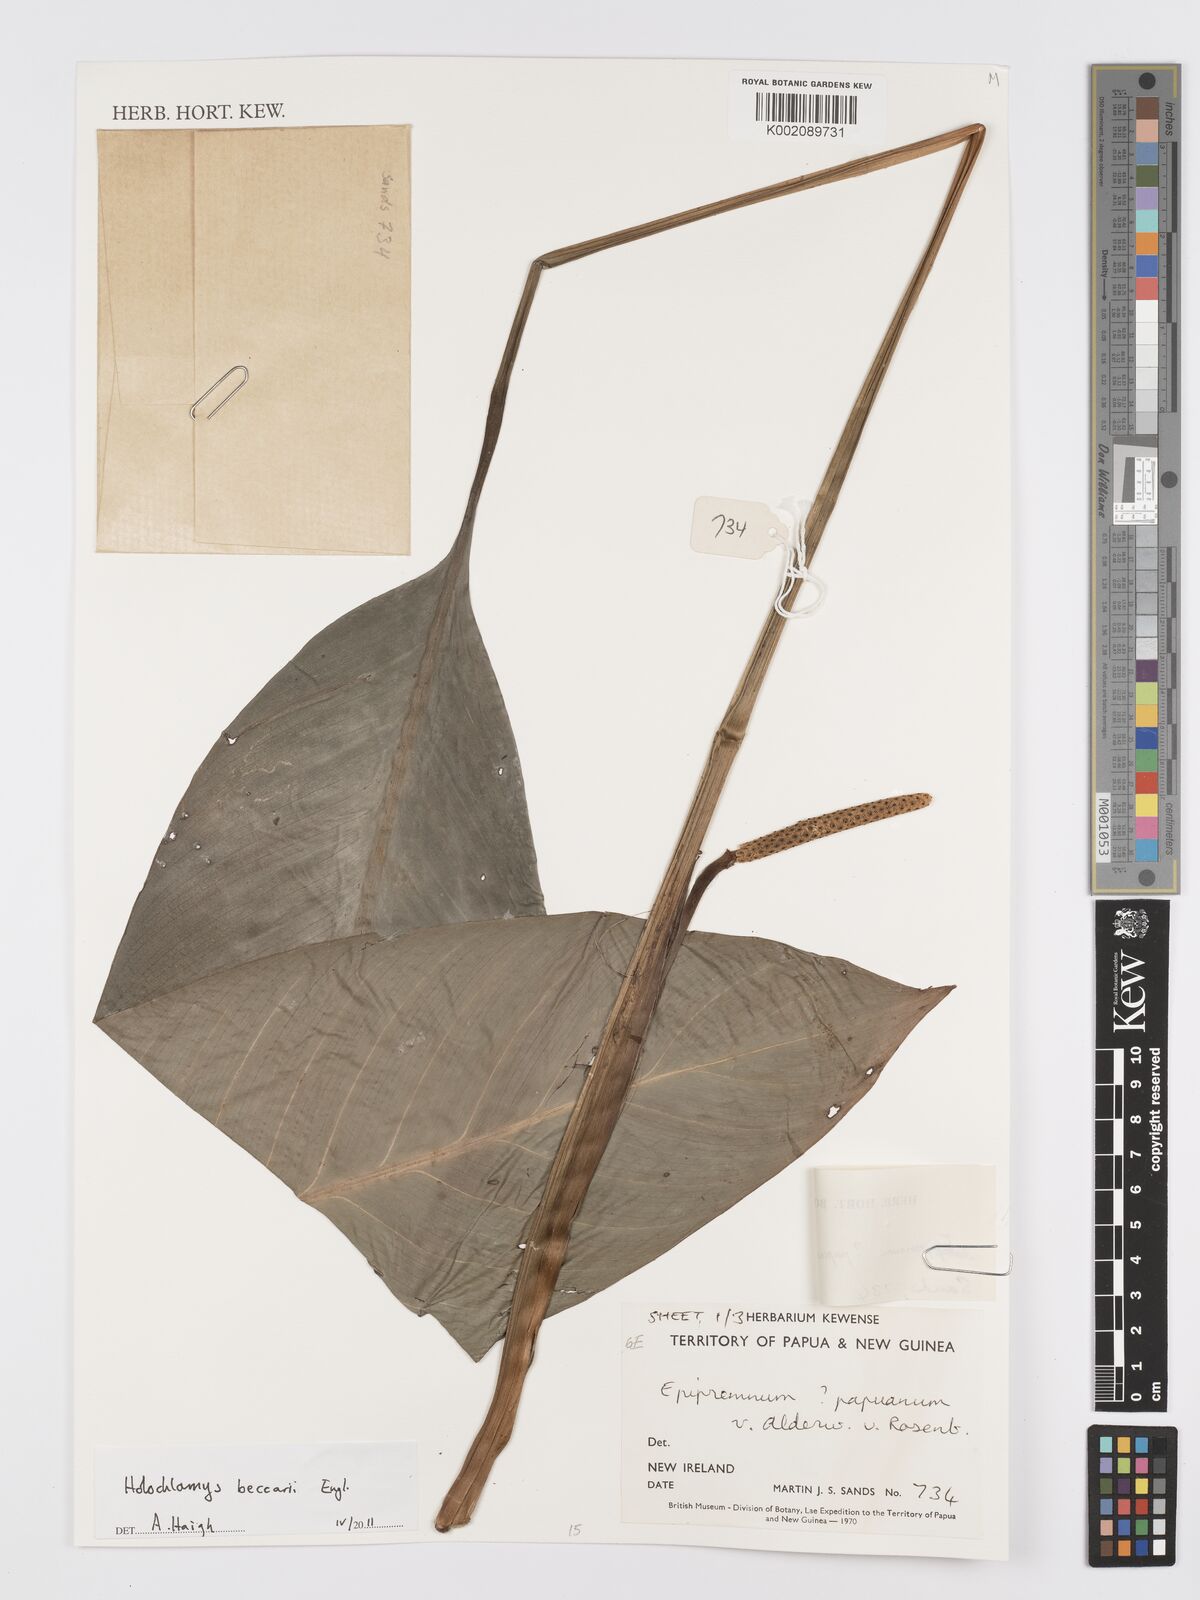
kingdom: Plantae
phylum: Tracheophyta
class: Liliopsida
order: Alismatales
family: Araceae
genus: Holochlamys
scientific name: Holochlamys beccarii
